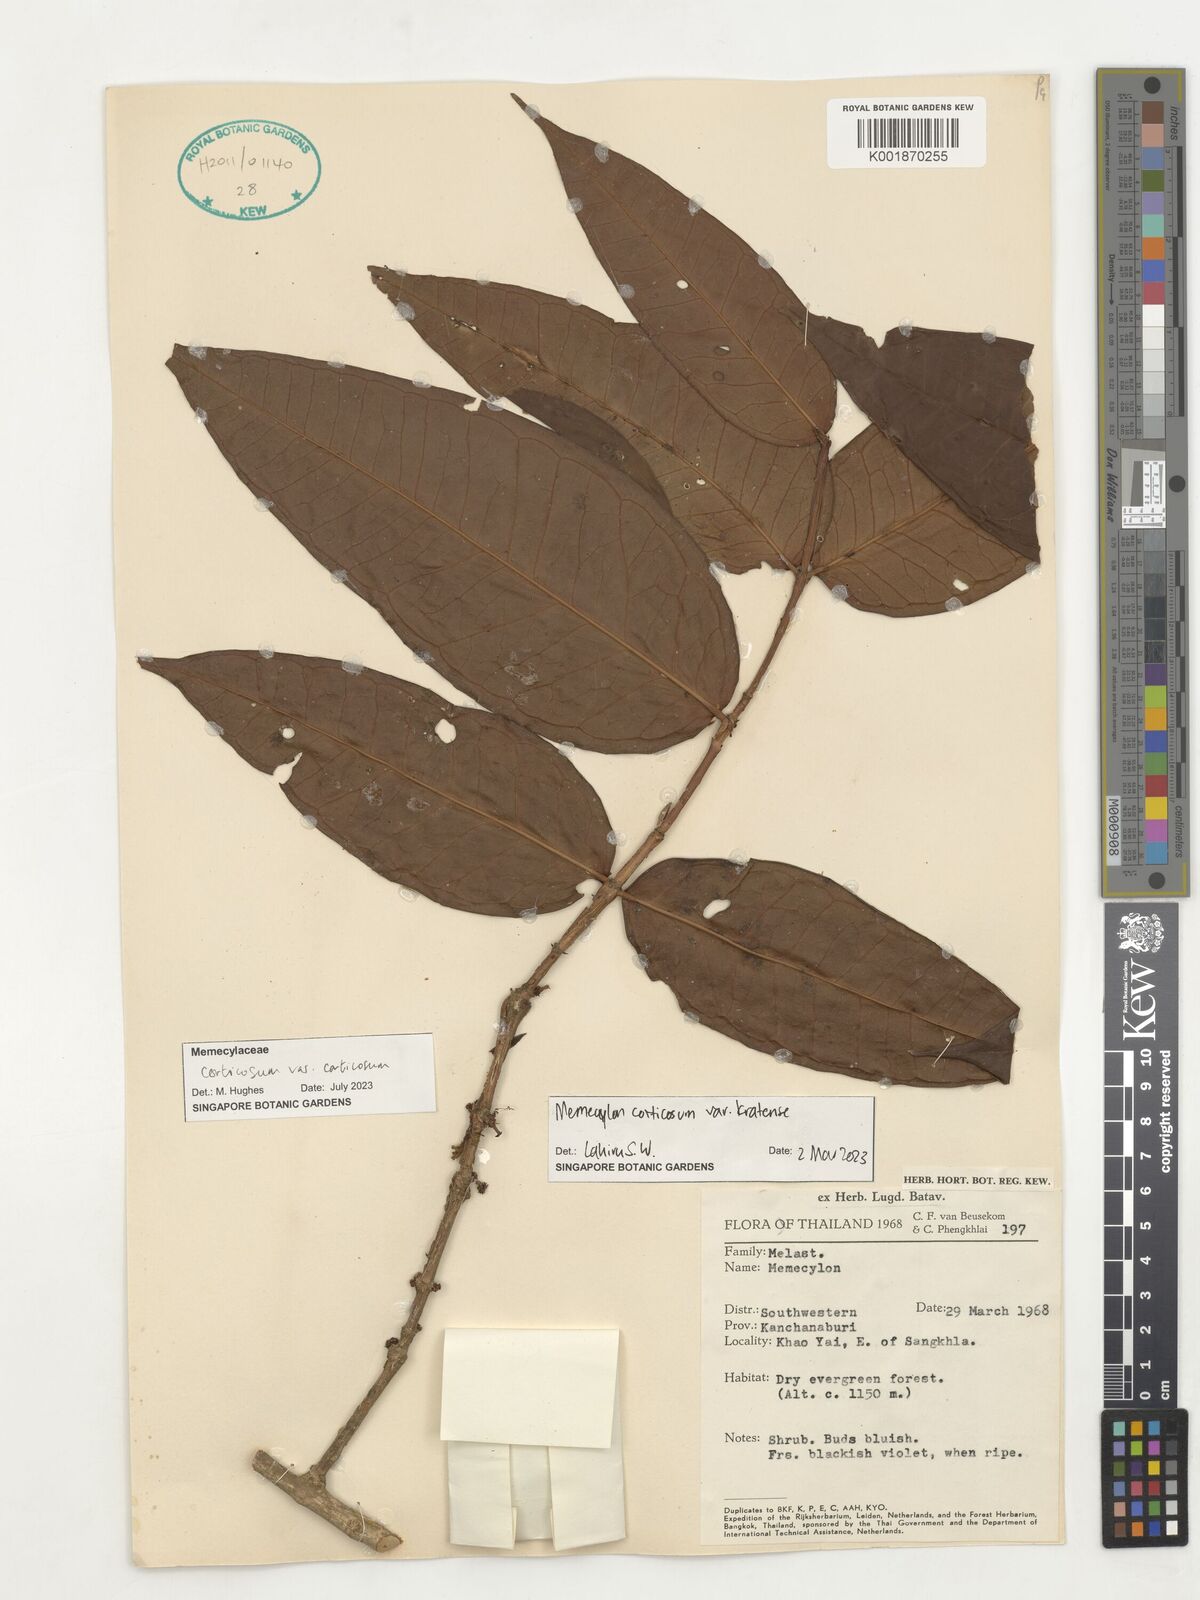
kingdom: Plantae
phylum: Tracheophyta
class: Magnoliopsida
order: Myrtales
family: Melastomataceae
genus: Memecylon
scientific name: Memecylon corticosum
